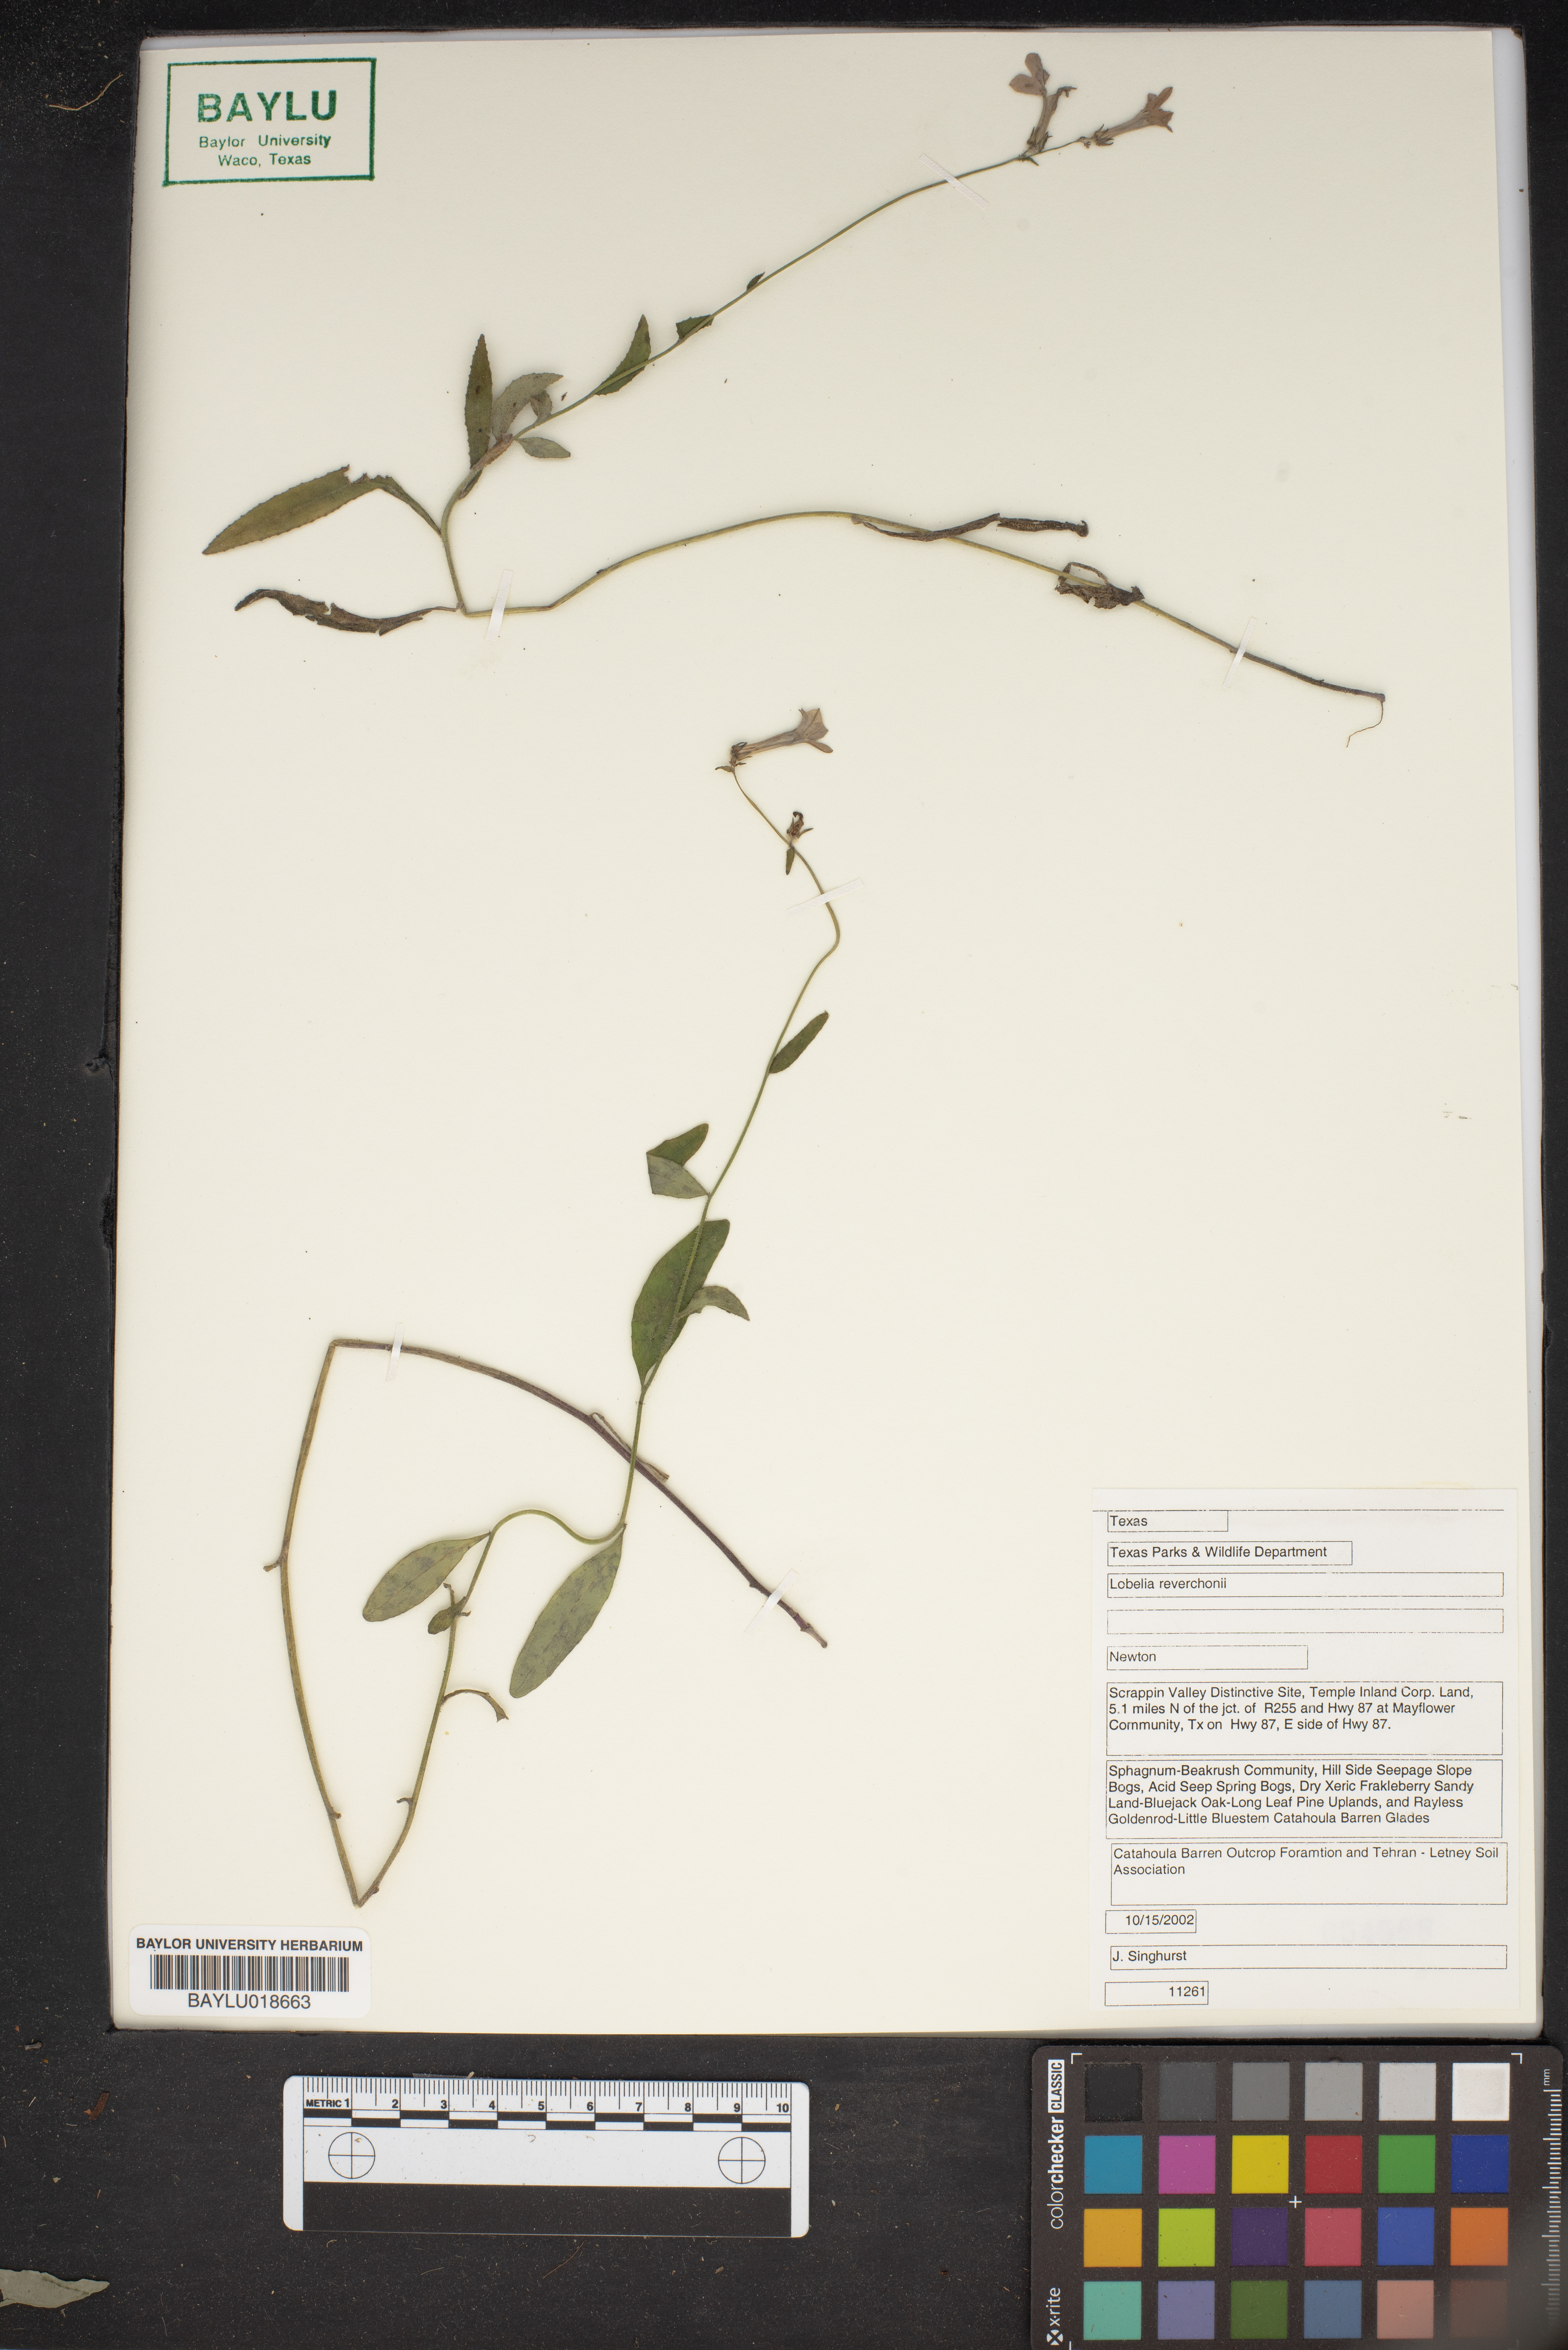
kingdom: Plantae
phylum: Tracheophyta
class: Magnoliopsida
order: Asterales
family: Campanulaceae
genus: Lobelia
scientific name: Lobelia reverchonii
